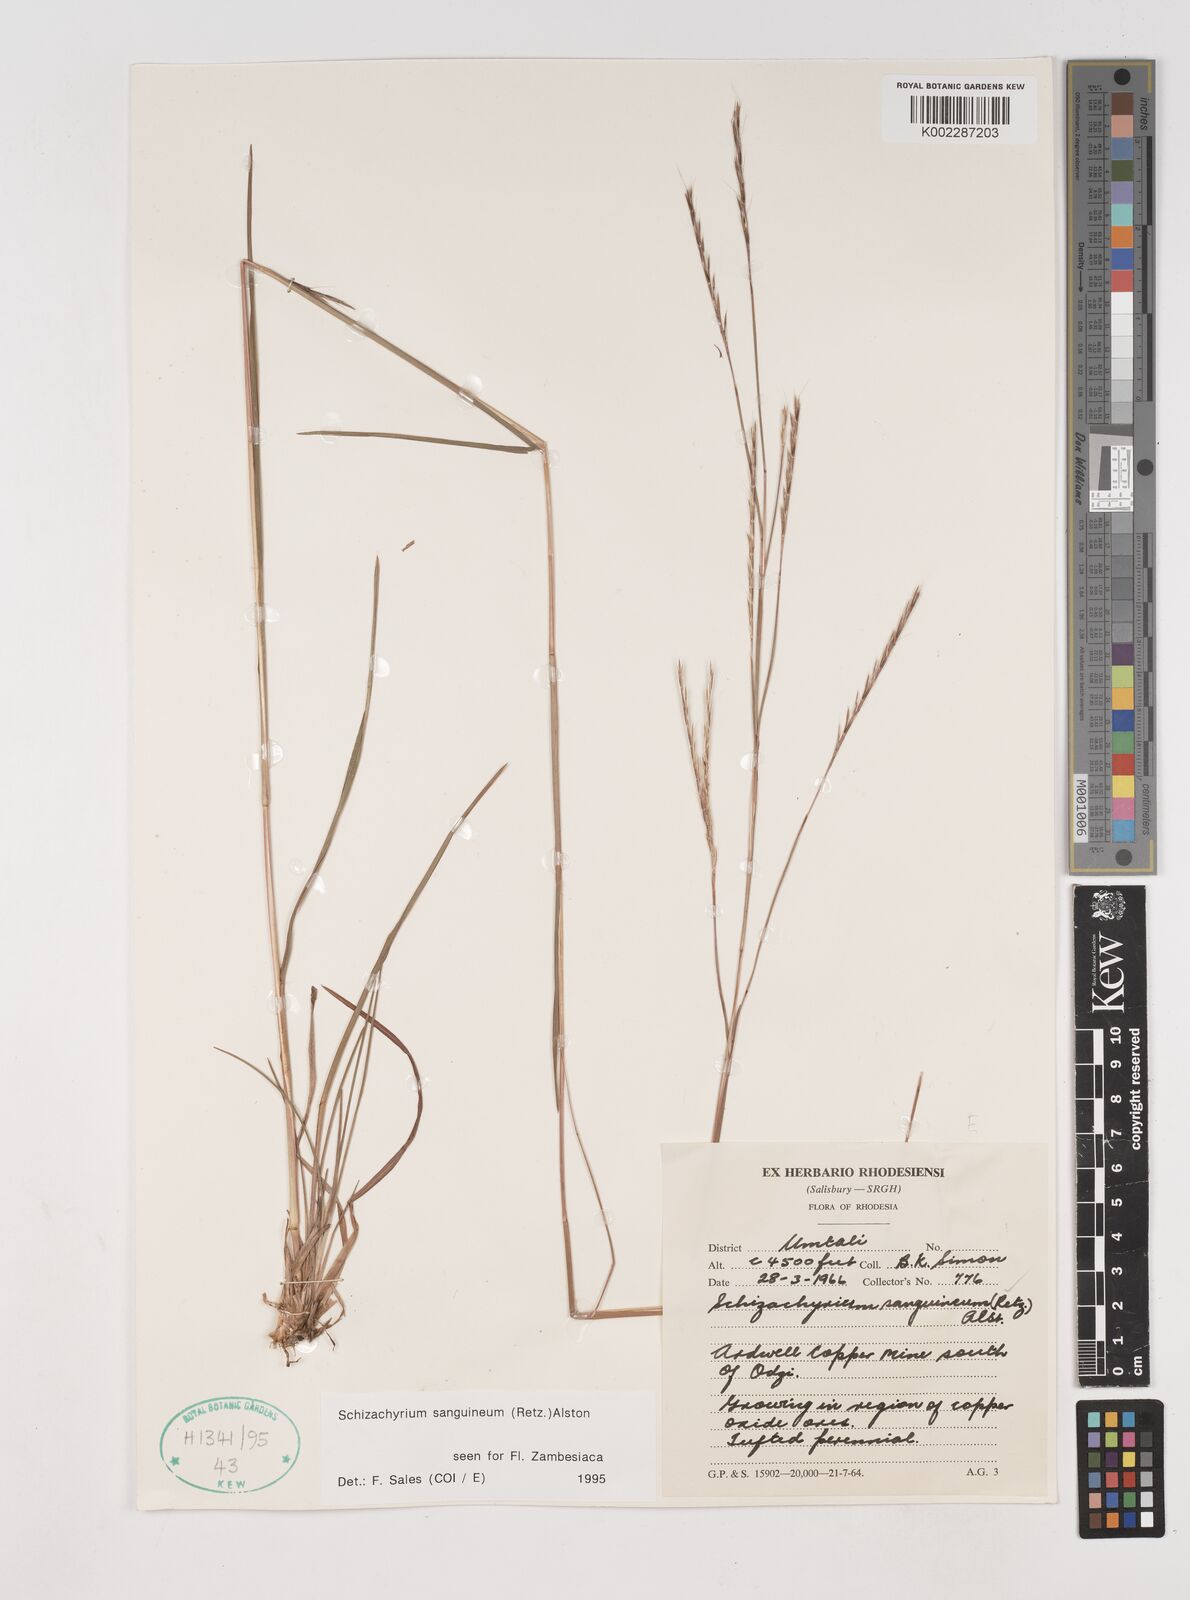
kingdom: Plantae
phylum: Tracheophyta
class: Liliopsida
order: Poales
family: Poaceae
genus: Schizachyrium
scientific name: Schizachyrium sanguineum
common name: Crimson bluestem
